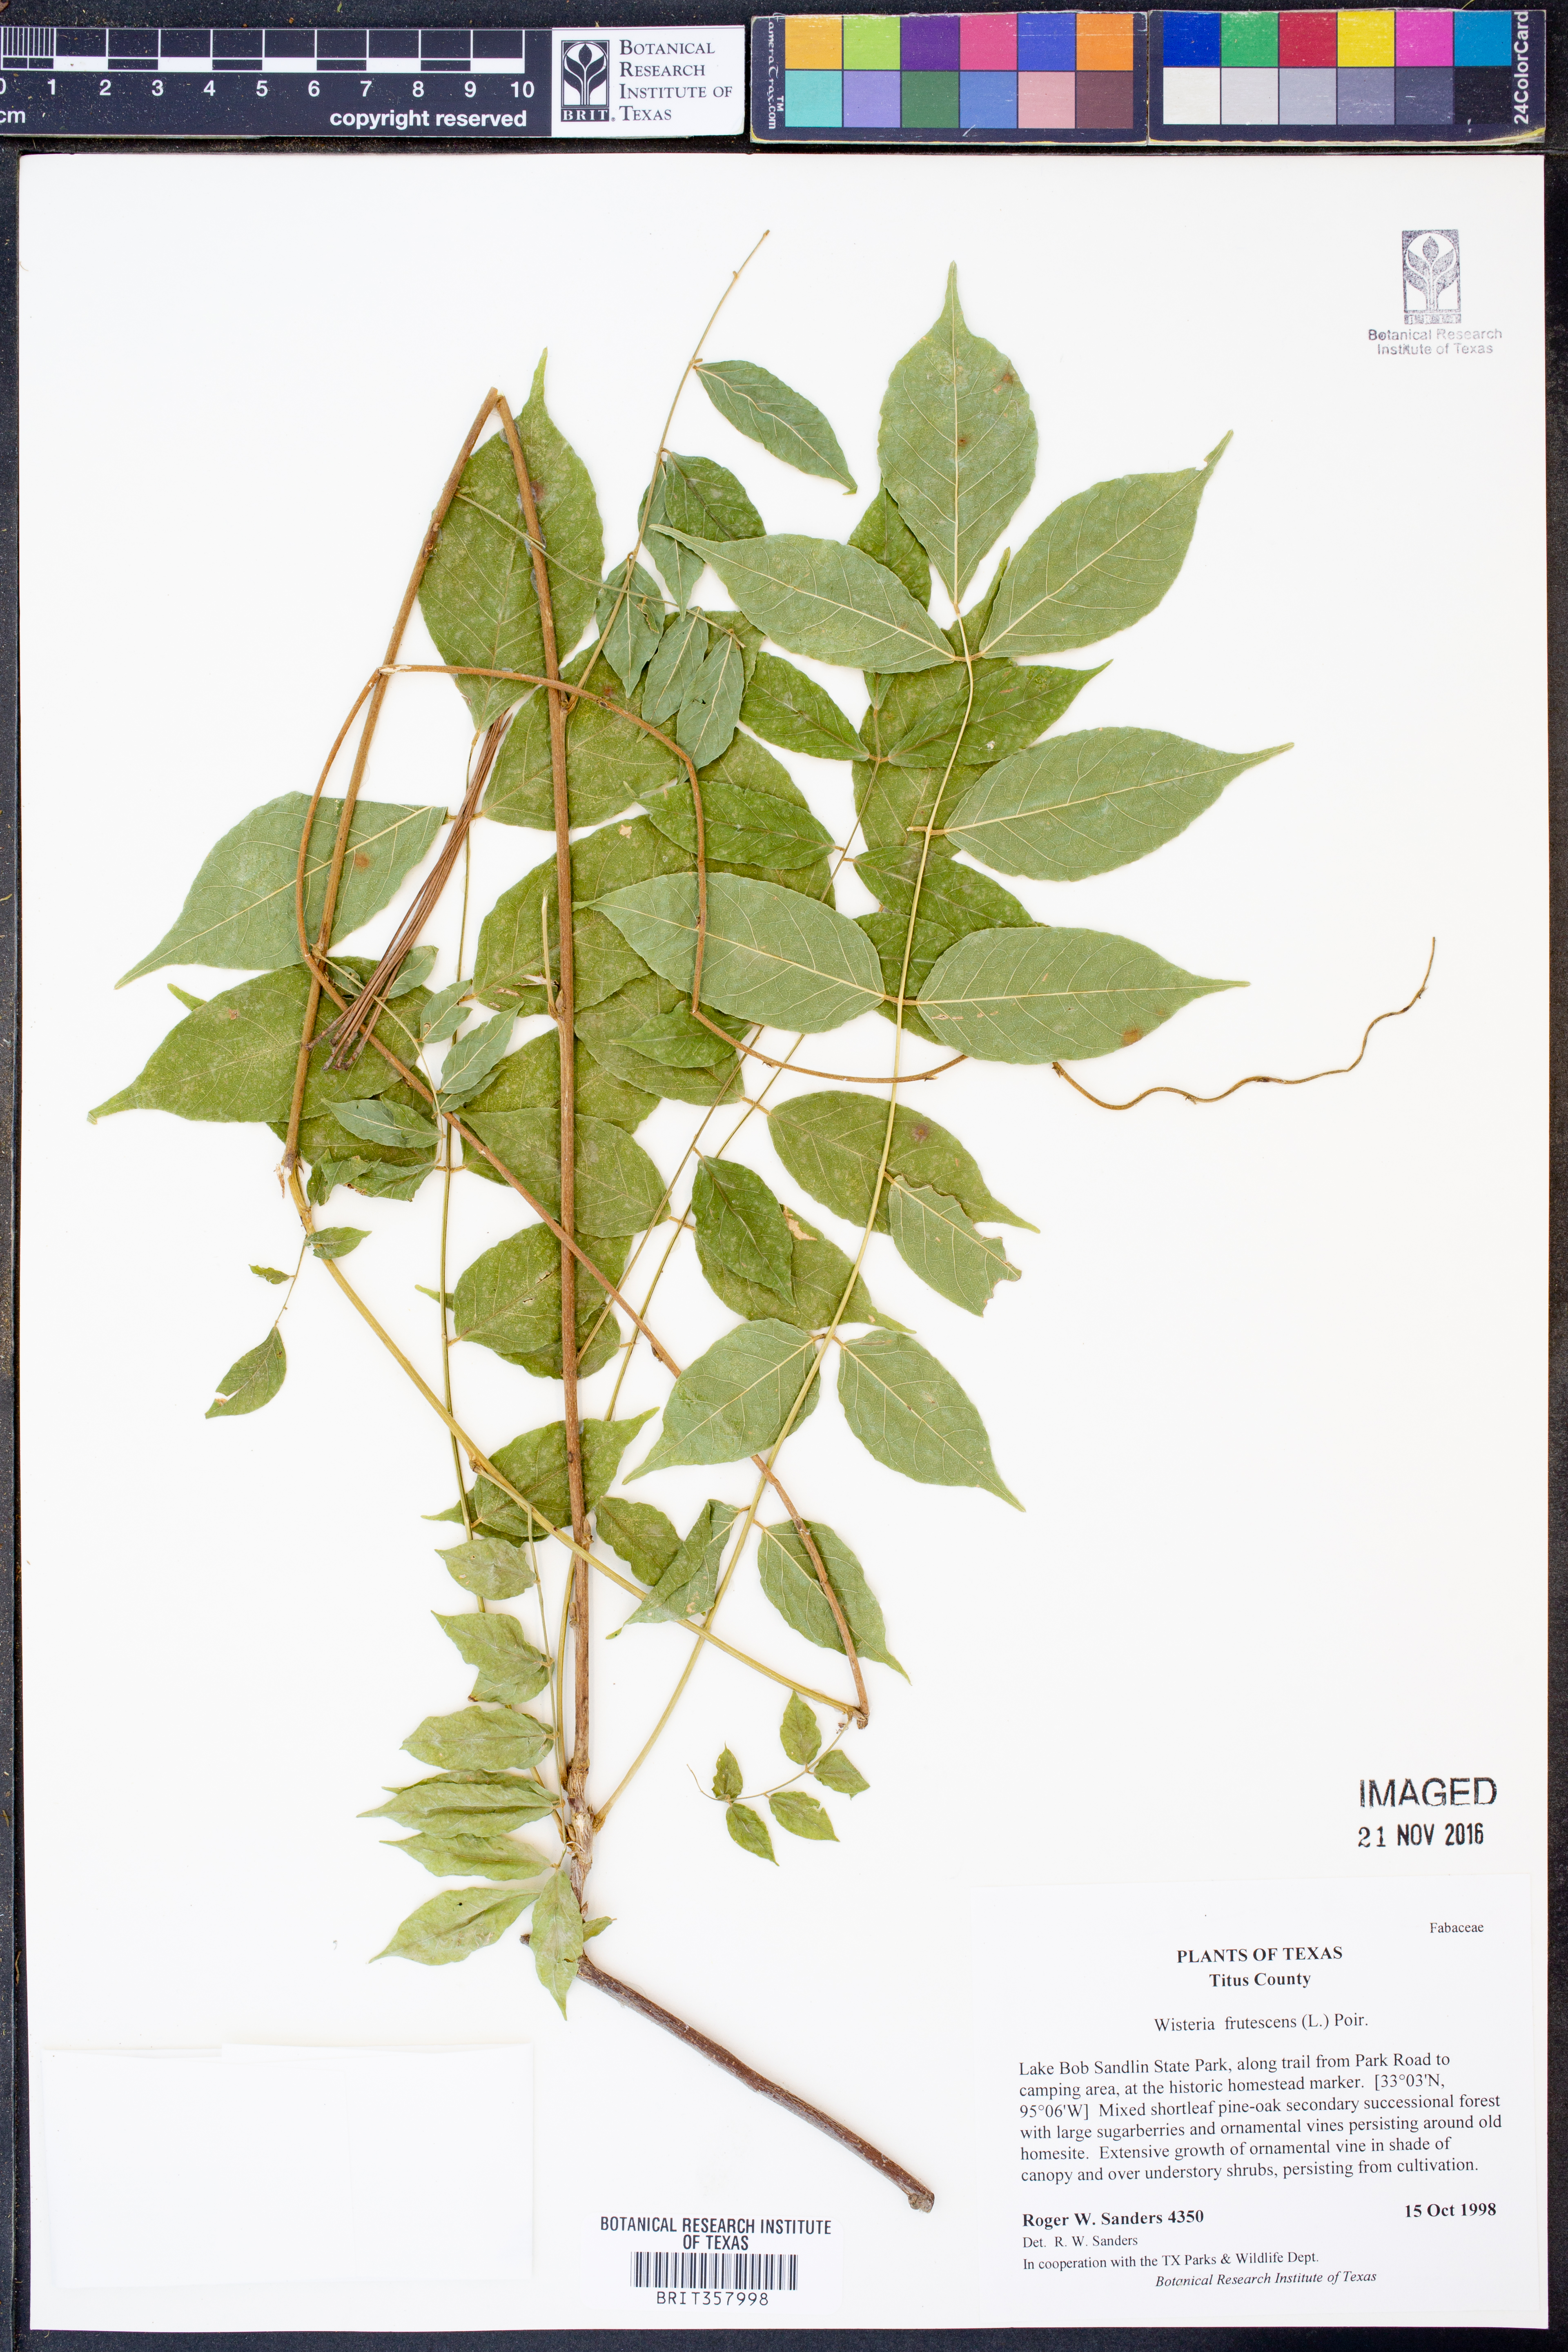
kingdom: Plantae
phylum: Tracheophyta
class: Magnoliopsida
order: Fabales
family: Fabaceae
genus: Wisteria
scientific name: Wisteria frutescens
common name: American wisteria
